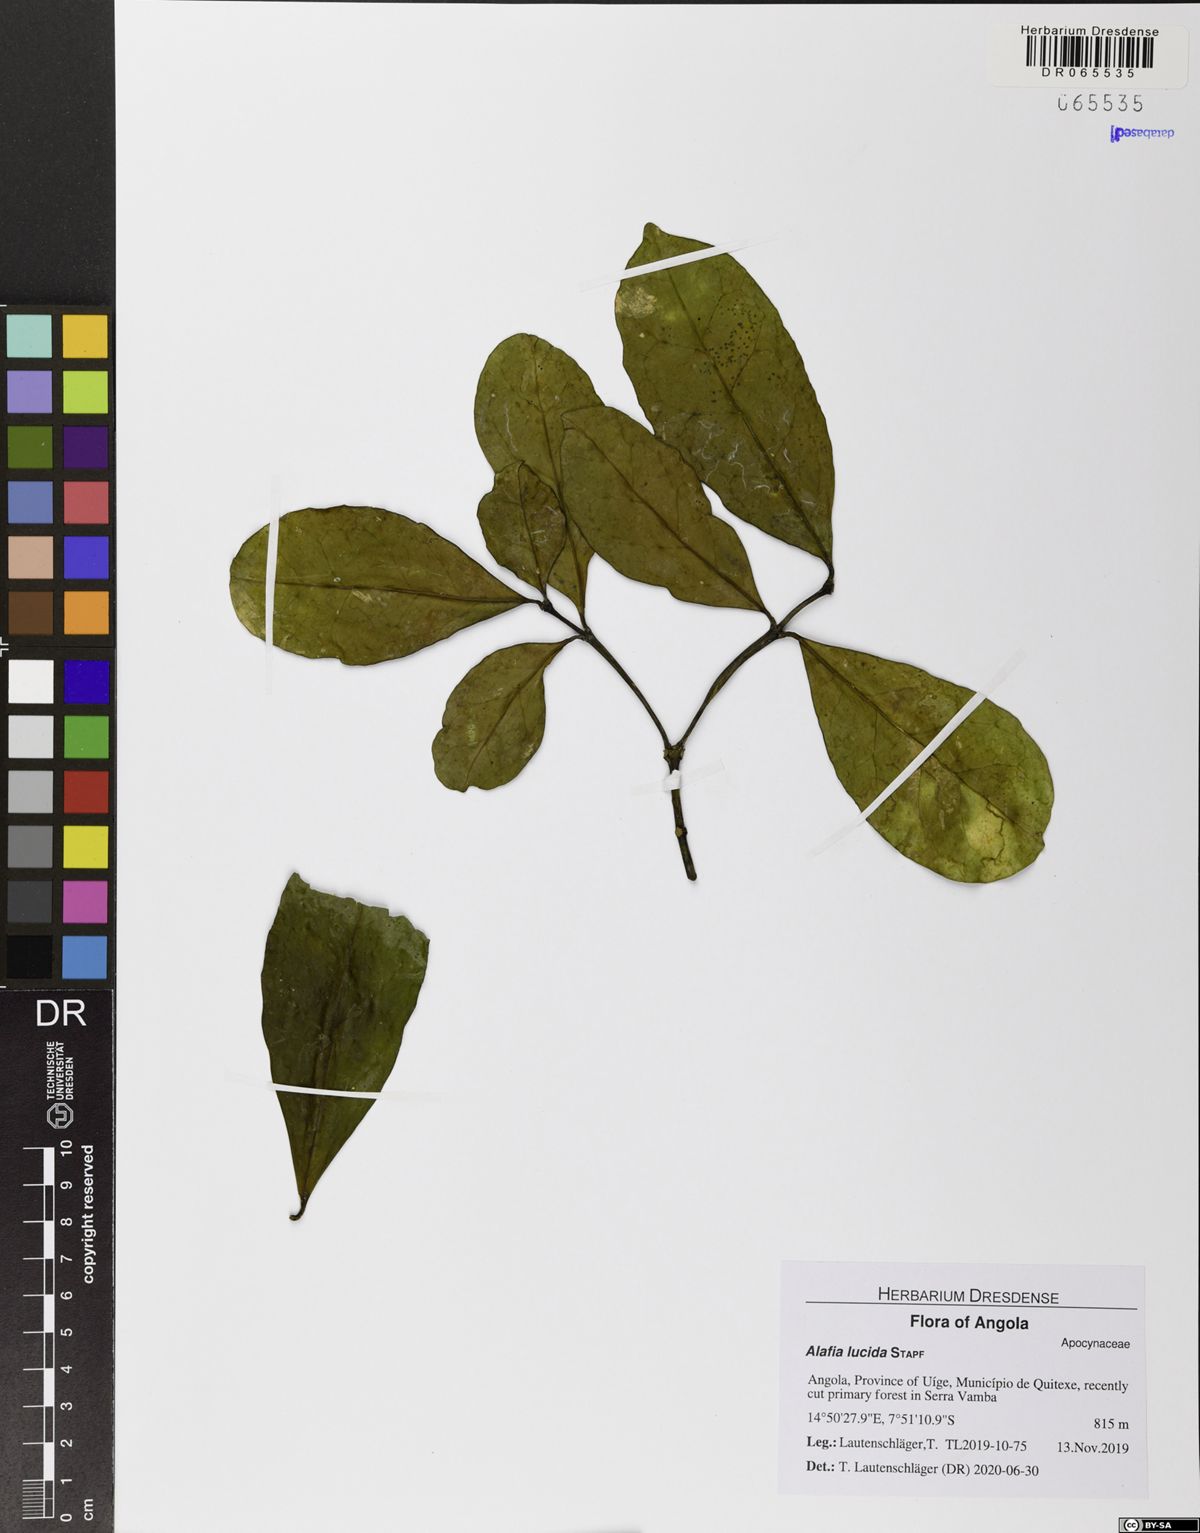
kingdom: Plantae
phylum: Tracheophyta
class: Magnoliopsida
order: Gentianales
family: Apocynaceae
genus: Alafia
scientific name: Alafia lucida
